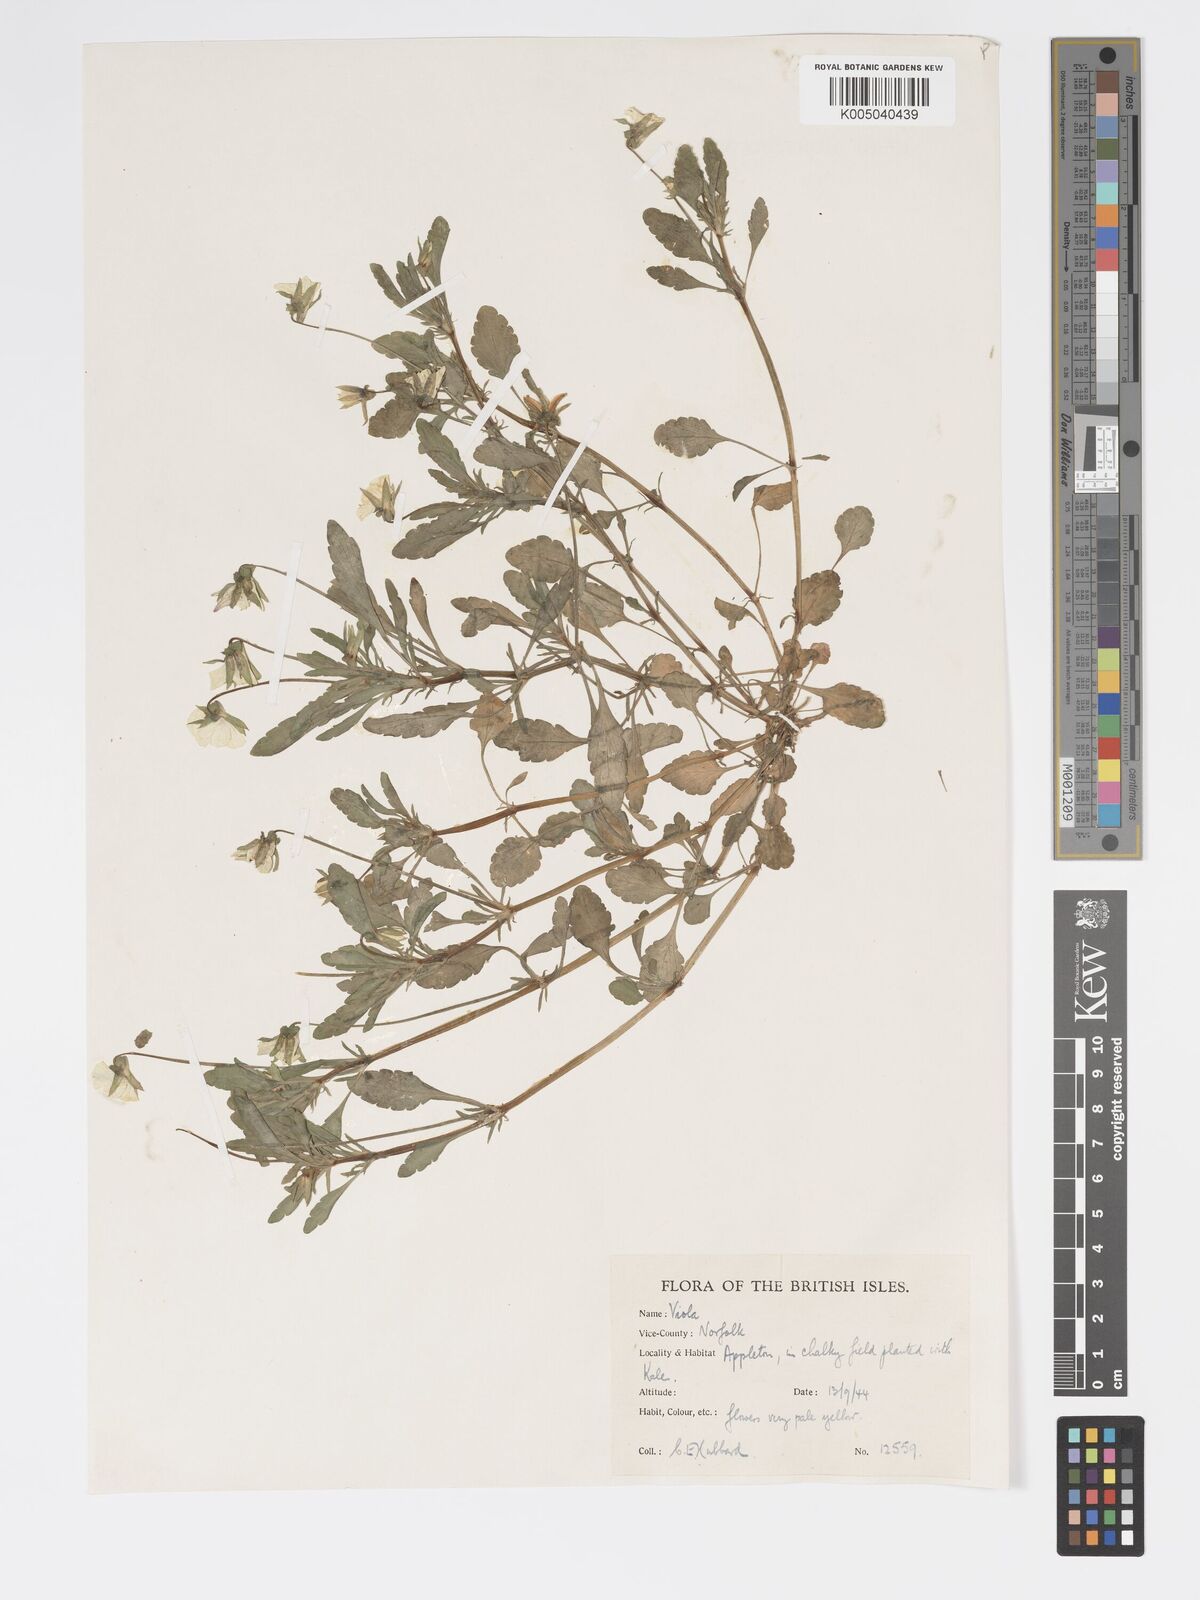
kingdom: Plantae
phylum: Tracheophyta
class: Magnoliopsida
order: Malpighiales
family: Violaceae
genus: Viola
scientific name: Viola arvensis
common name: Field pansy
